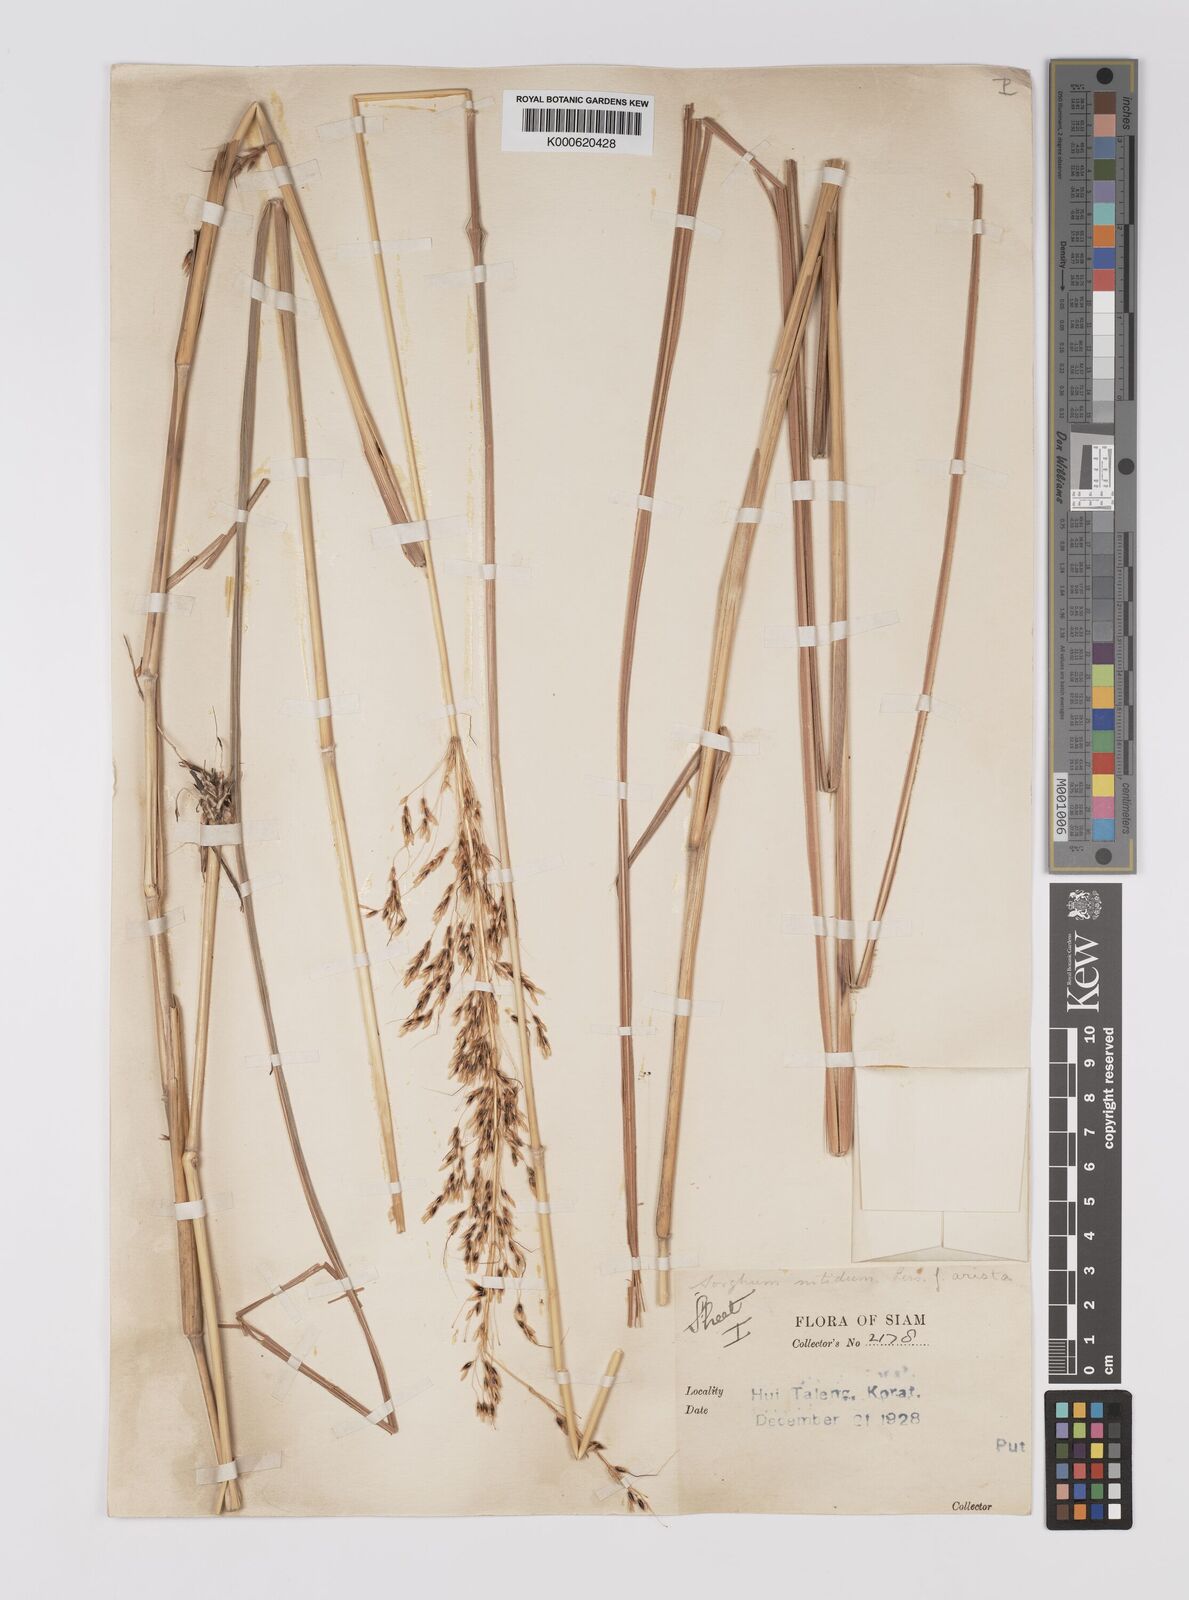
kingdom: Plantae
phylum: Tracheophyta
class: Liliopsida
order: Poales
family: Poaceae
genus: Sorghum
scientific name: Sorghum nitidum
